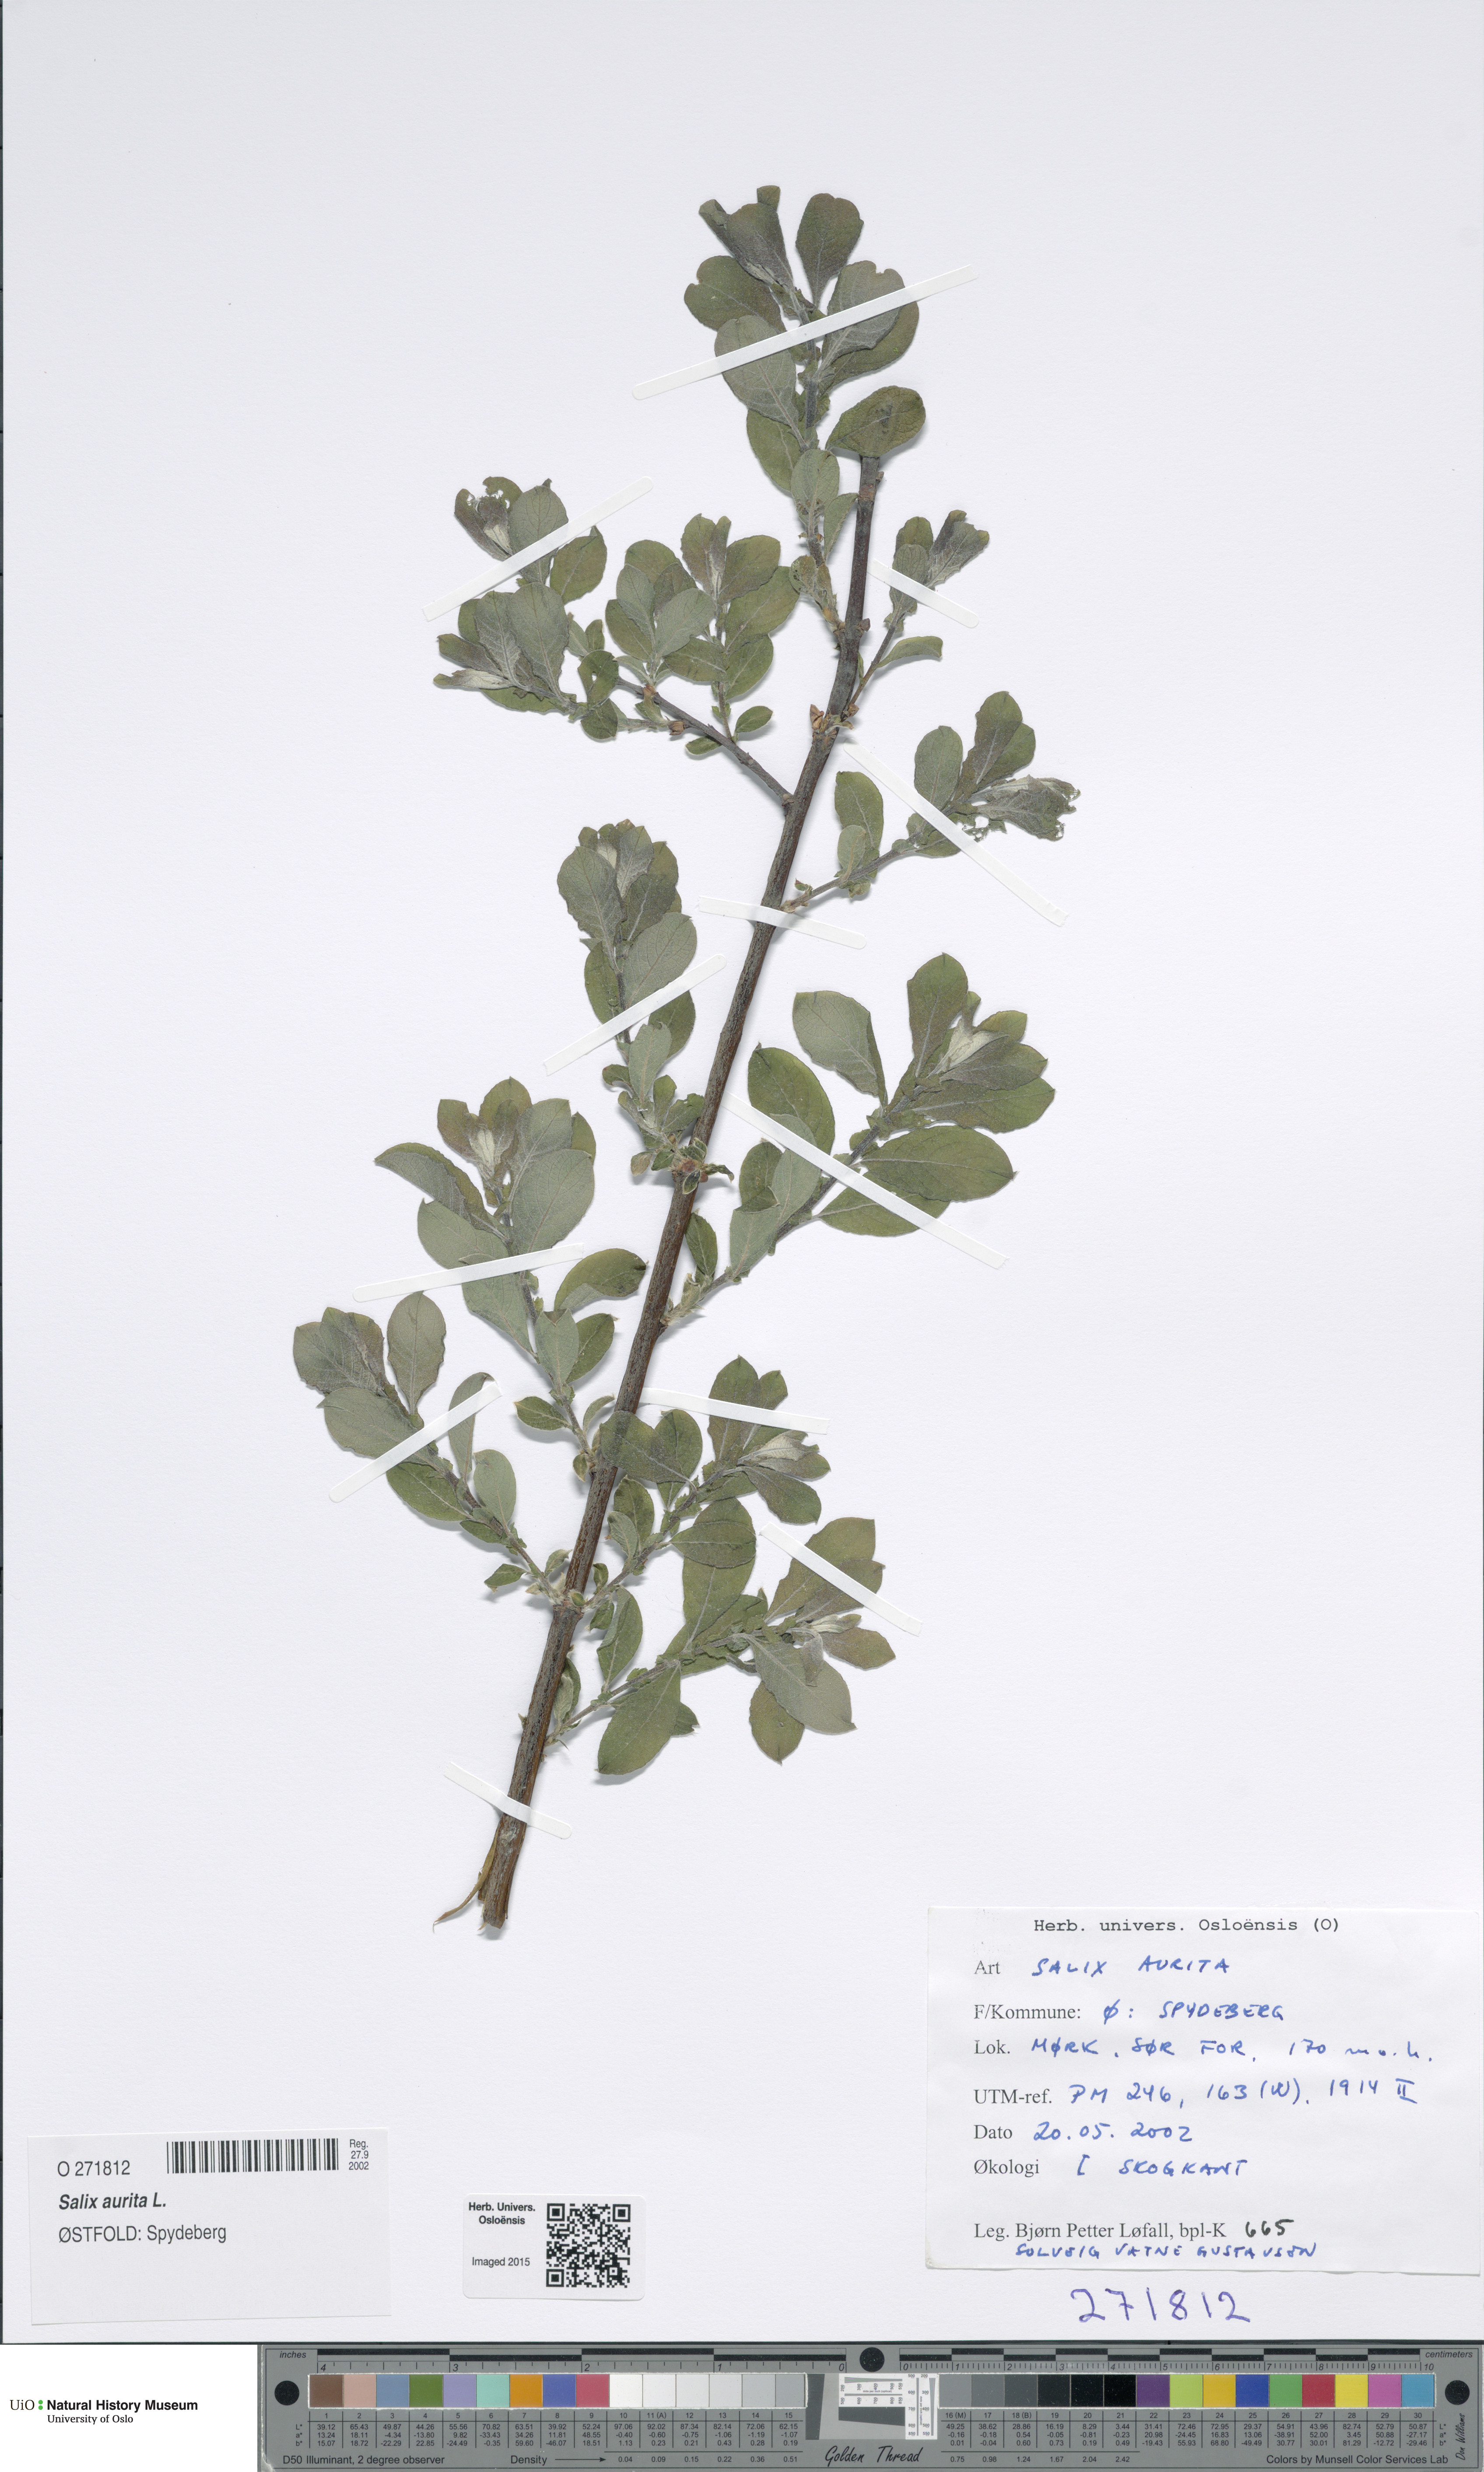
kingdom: Plantae
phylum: Tracheophyta
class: Magnoliopsida
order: Malpighiales
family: Salicaceae
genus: Salix
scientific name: Salix aurita
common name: Eared willow
